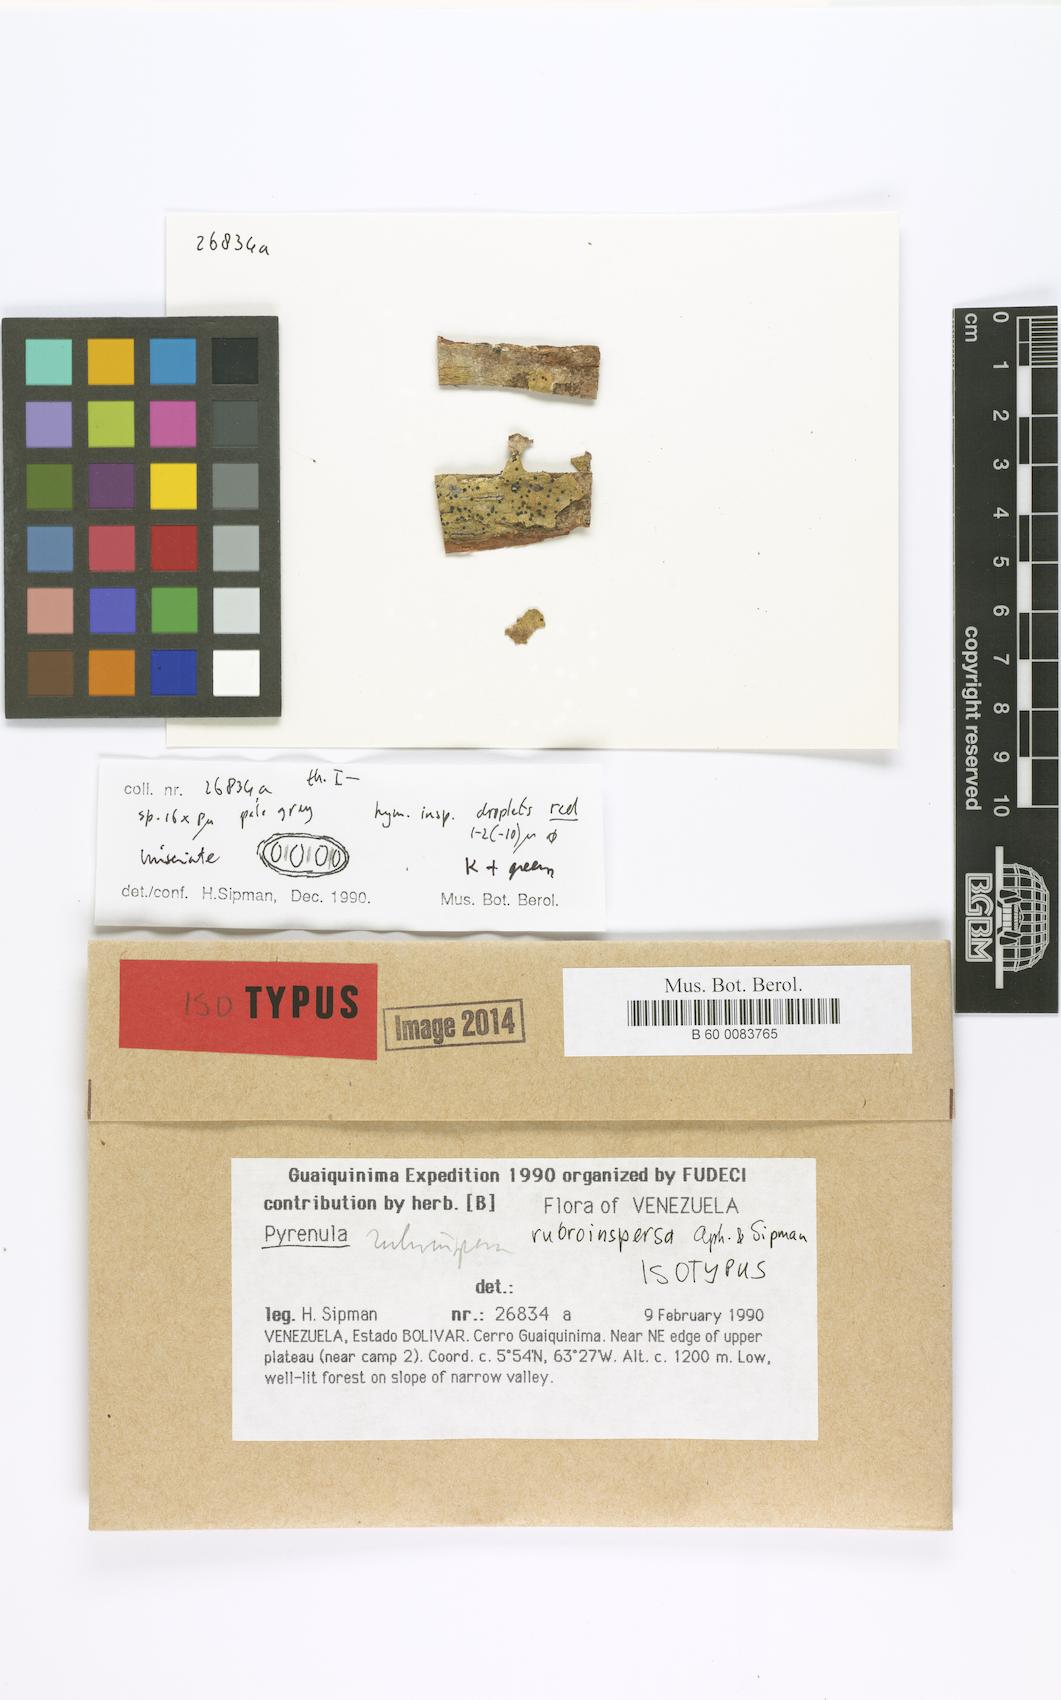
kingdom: Fungi
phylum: Ascomycota
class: Eurotiomycetes
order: Pyrenulales
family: Pyrenulaceae
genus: Pyrenula
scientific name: Pyrenula rubroinspersa
